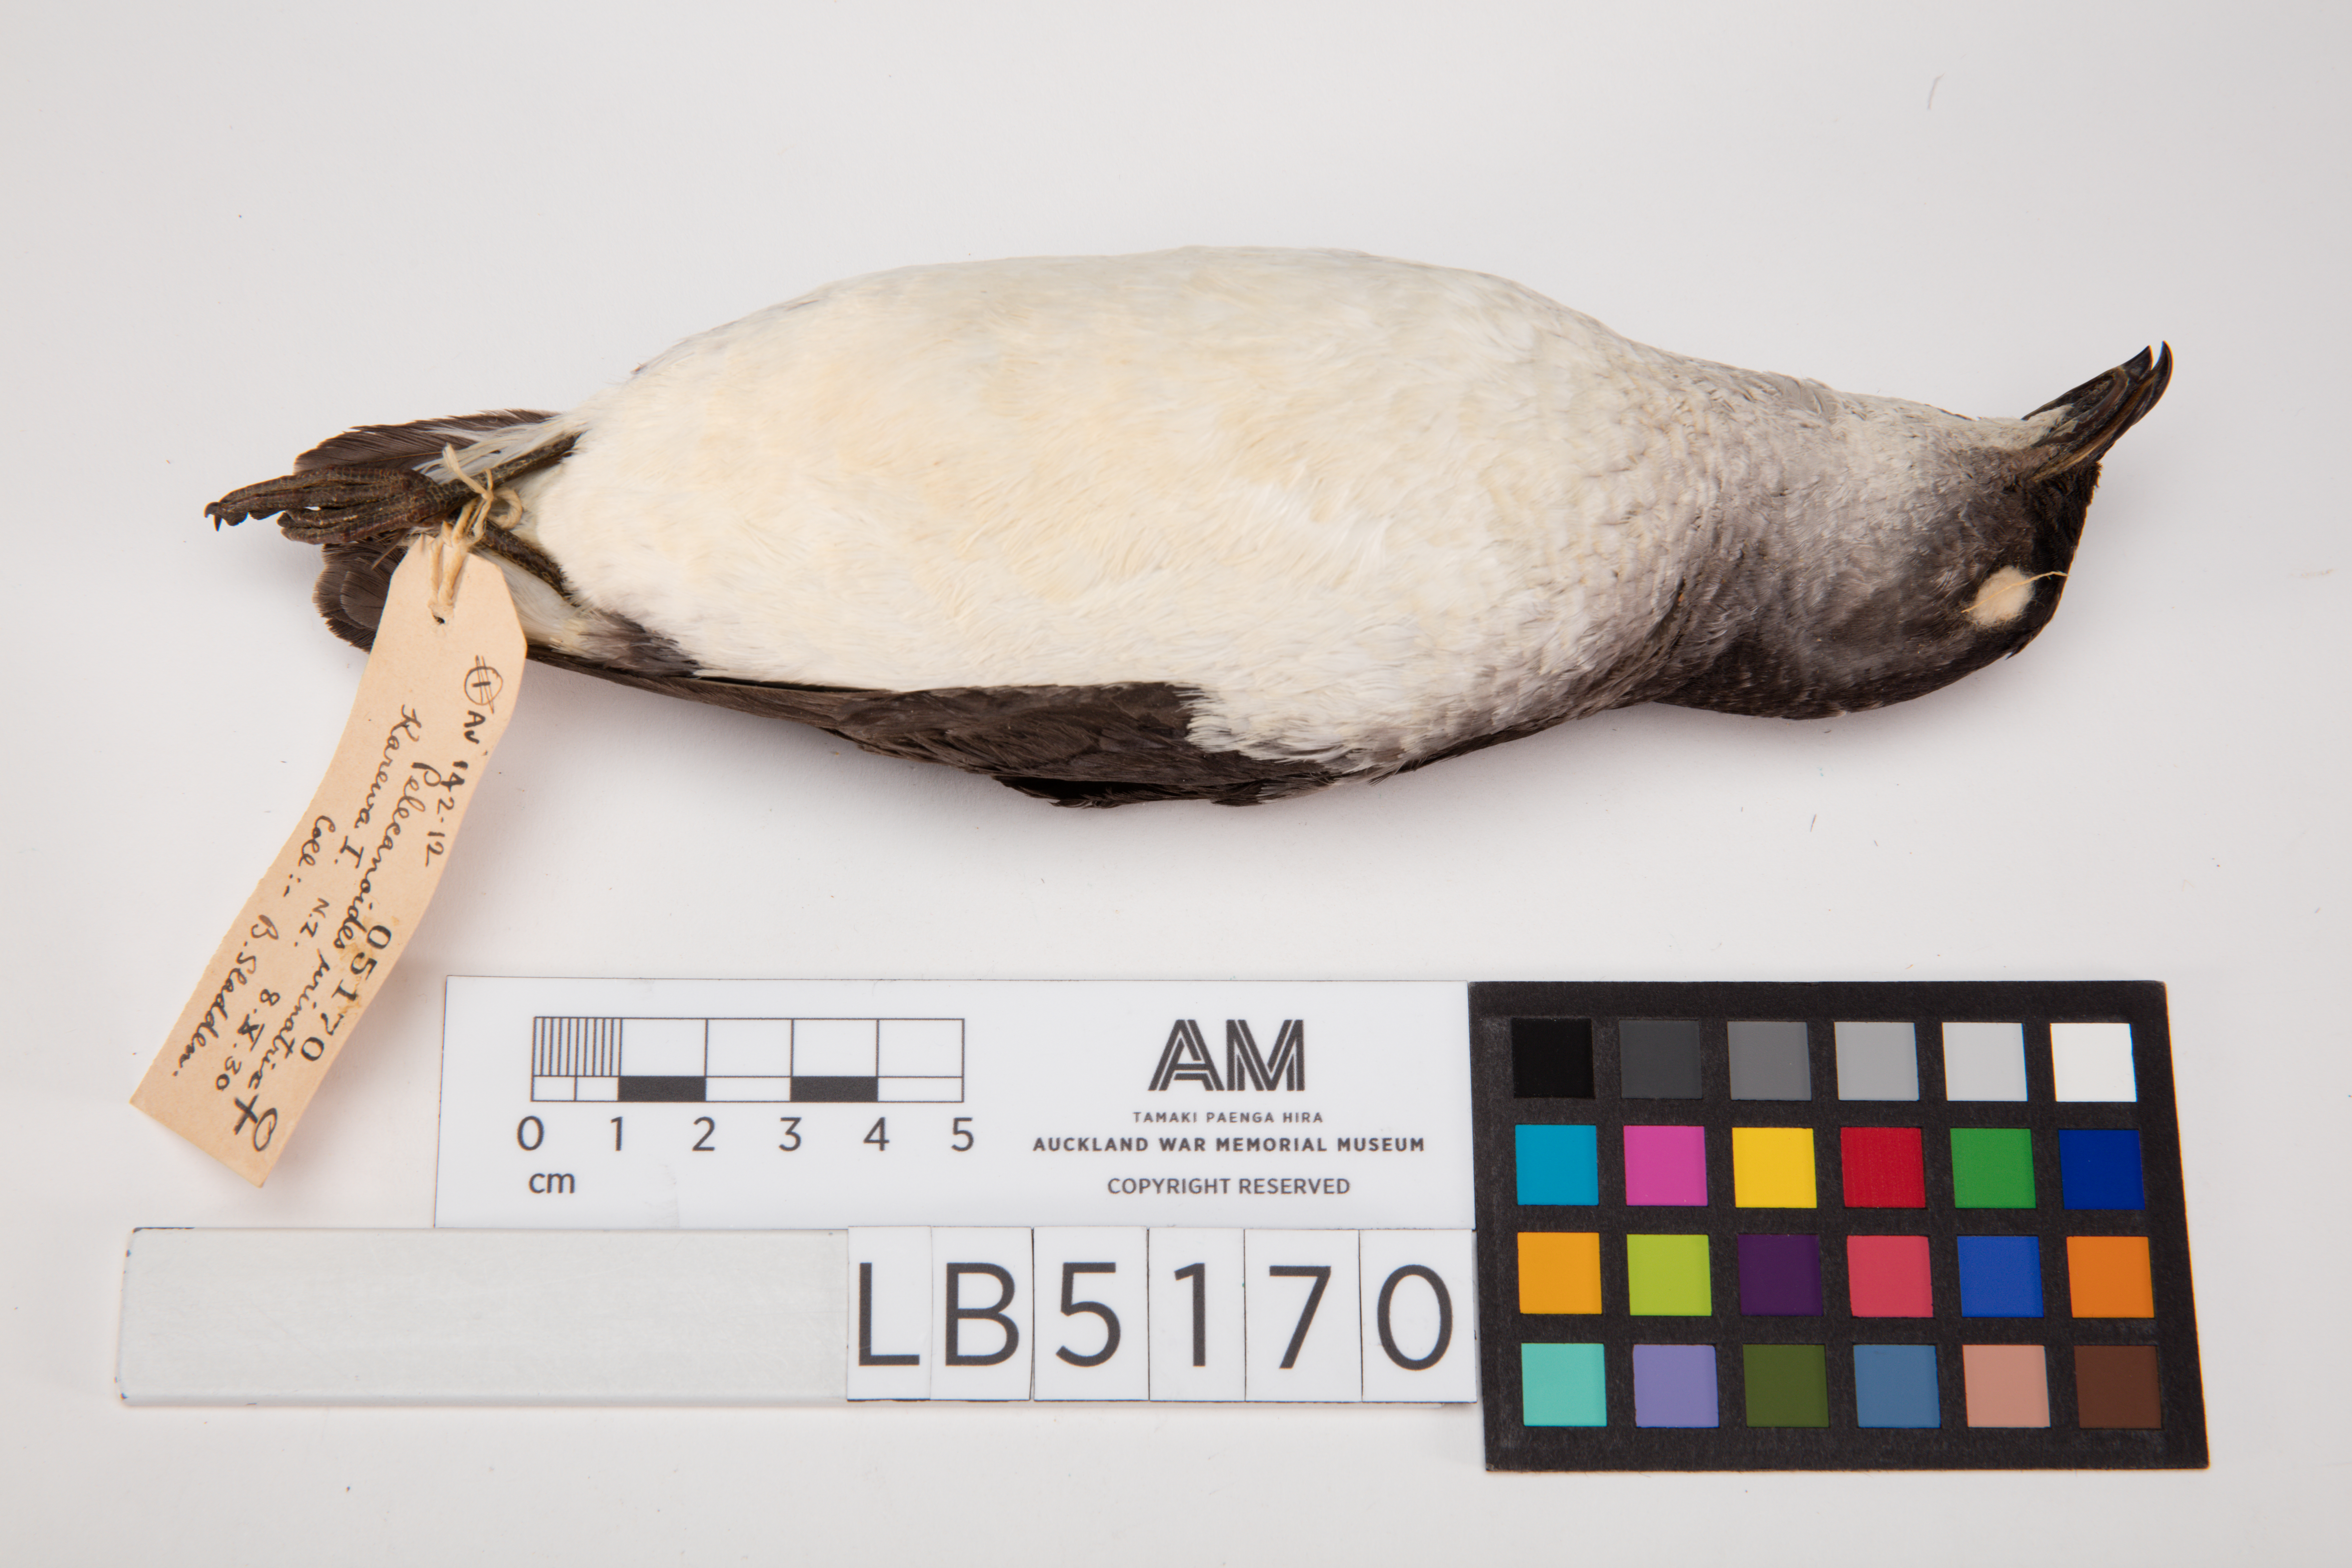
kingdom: Animalia
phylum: Chordata
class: Aves
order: Procellariiformes
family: Pelecanoididae
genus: Pelecanoides
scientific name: Pelecanoides urinatrix
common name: Common diving-petrel
